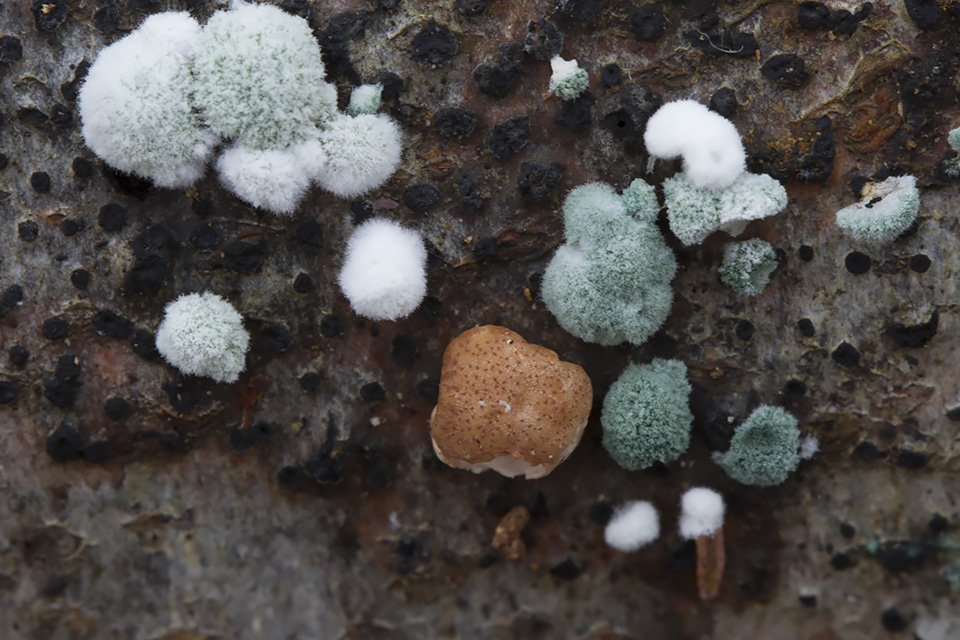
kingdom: Fungi
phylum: Ascomycota
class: Sordariomycetes
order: Hypocreales
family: Hypocreaceae
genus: Trichoderma
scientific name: Trichoderma europaeum
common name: rosabrun kødkerne
